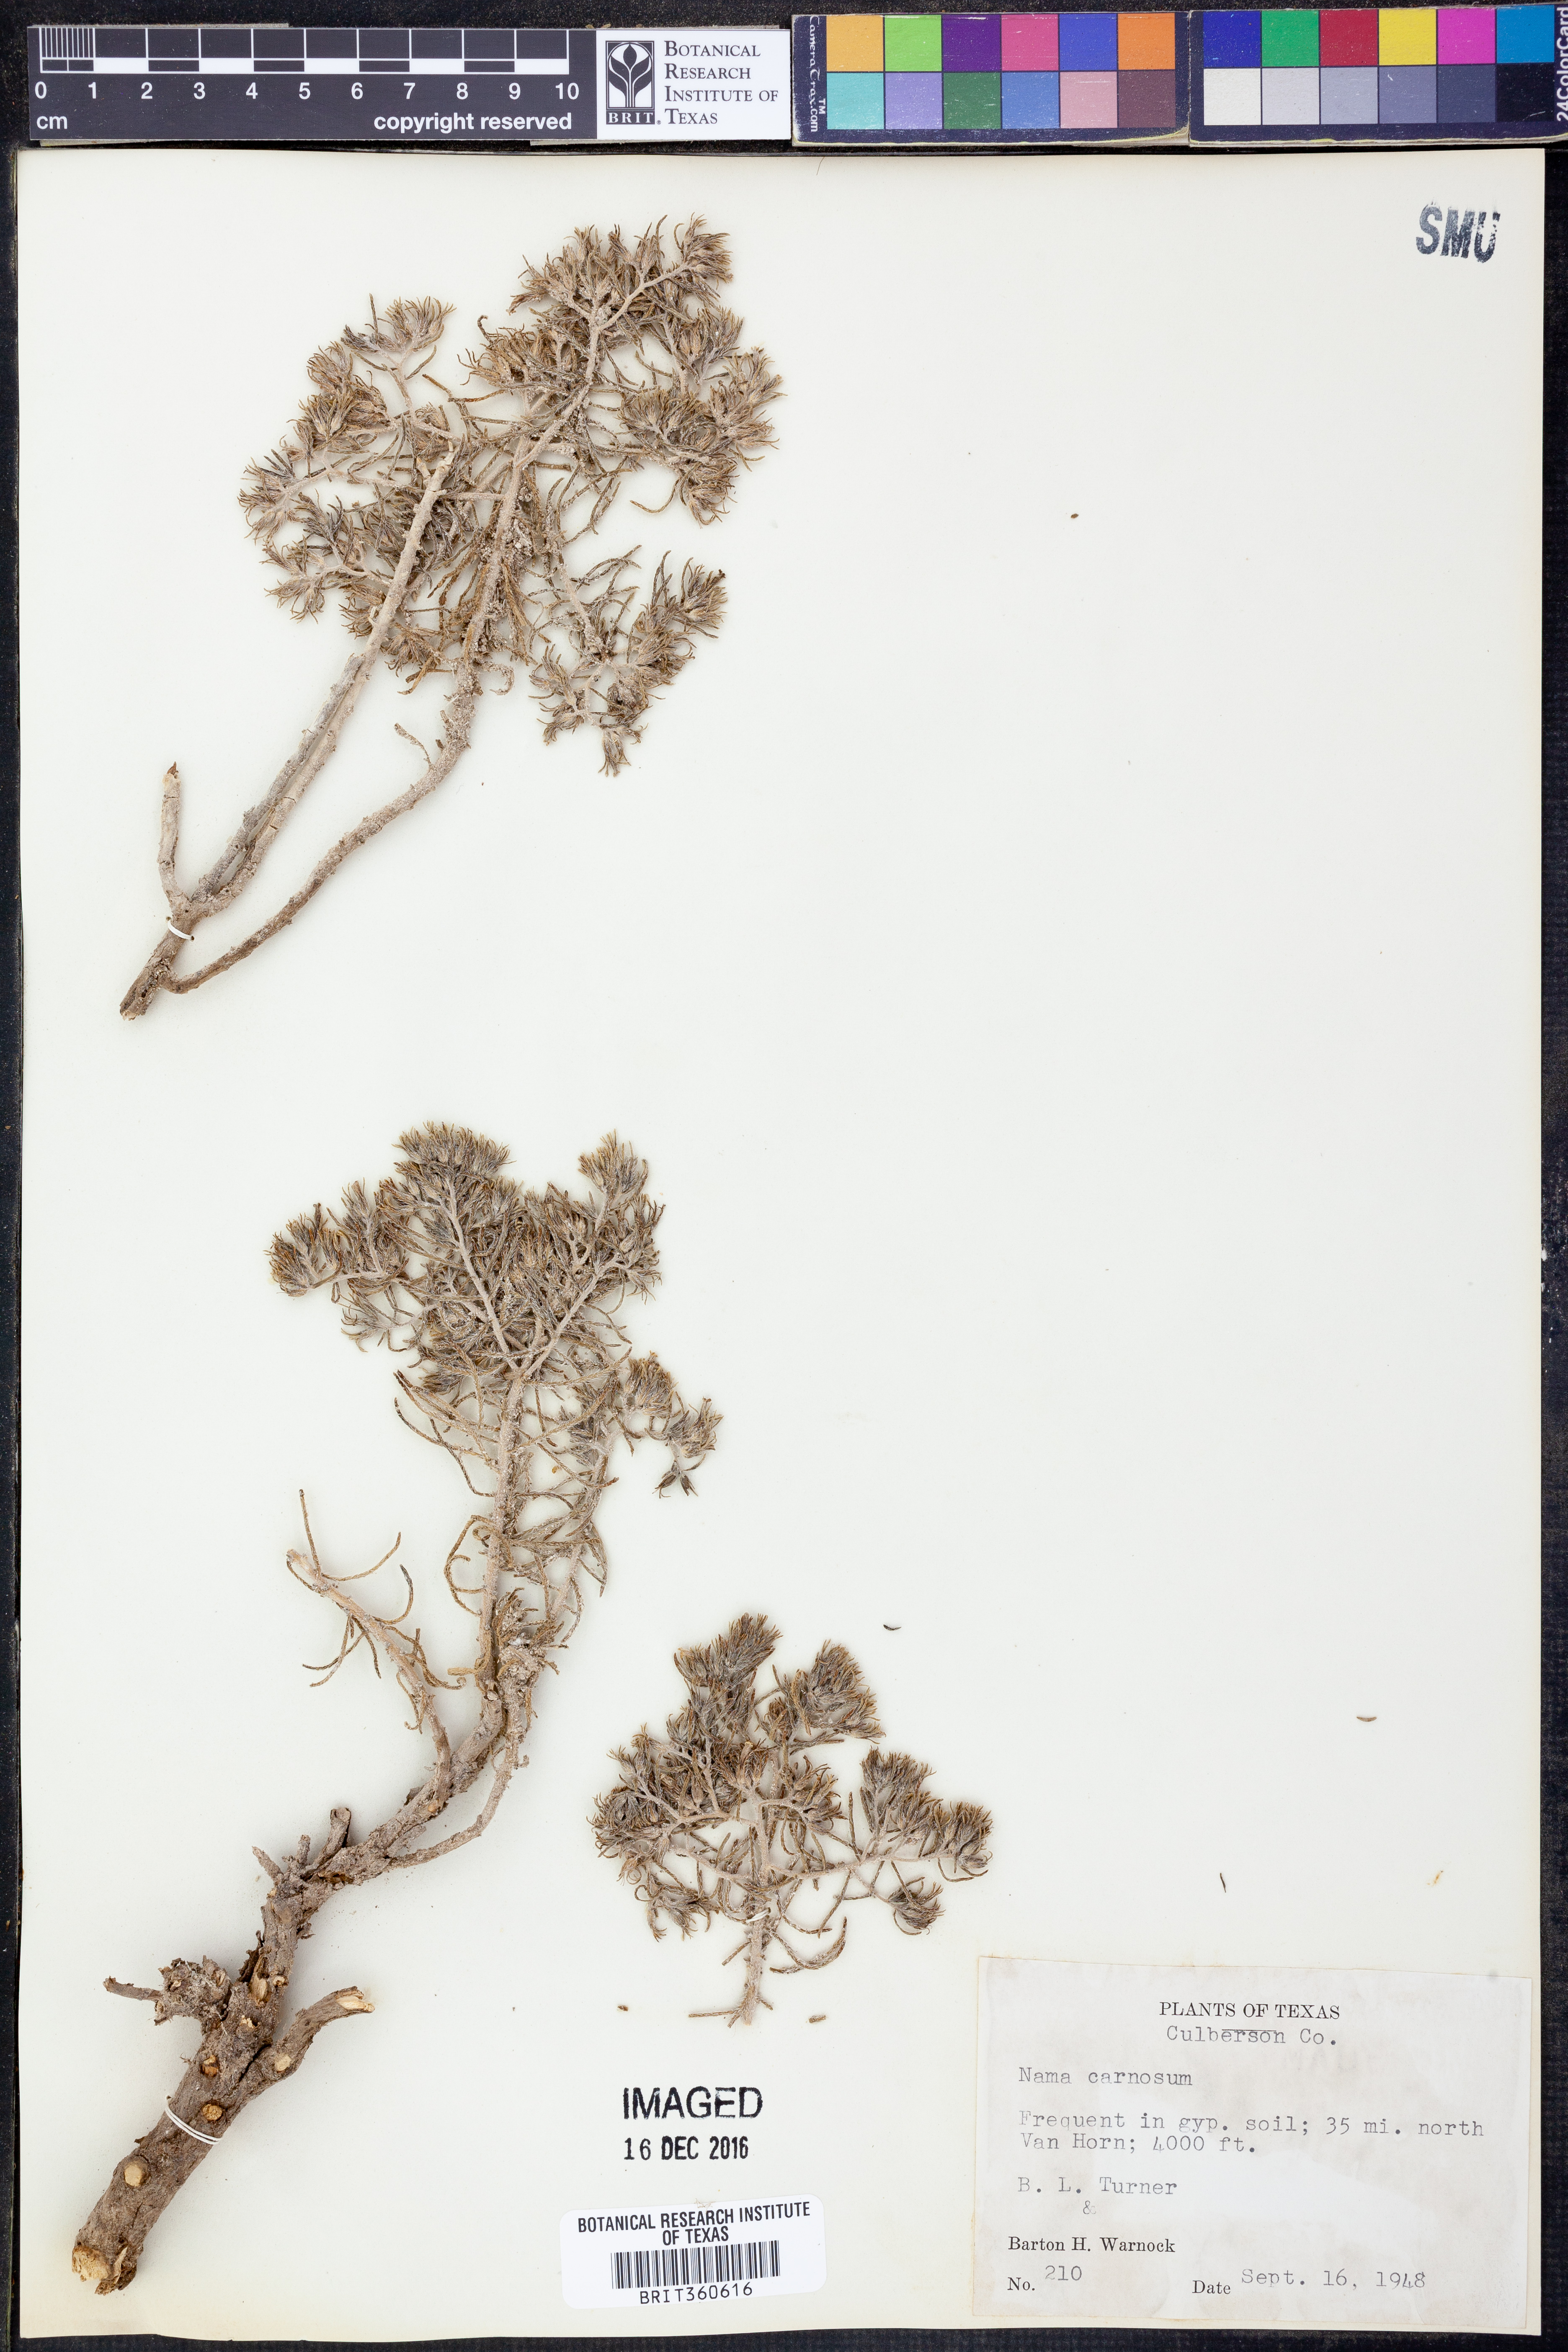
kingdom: Plantae
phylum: Tracheophyta
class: Magnoliopsida
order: Boraginales
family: Namaceae
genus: Andropus
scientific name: Andropus carnosus
